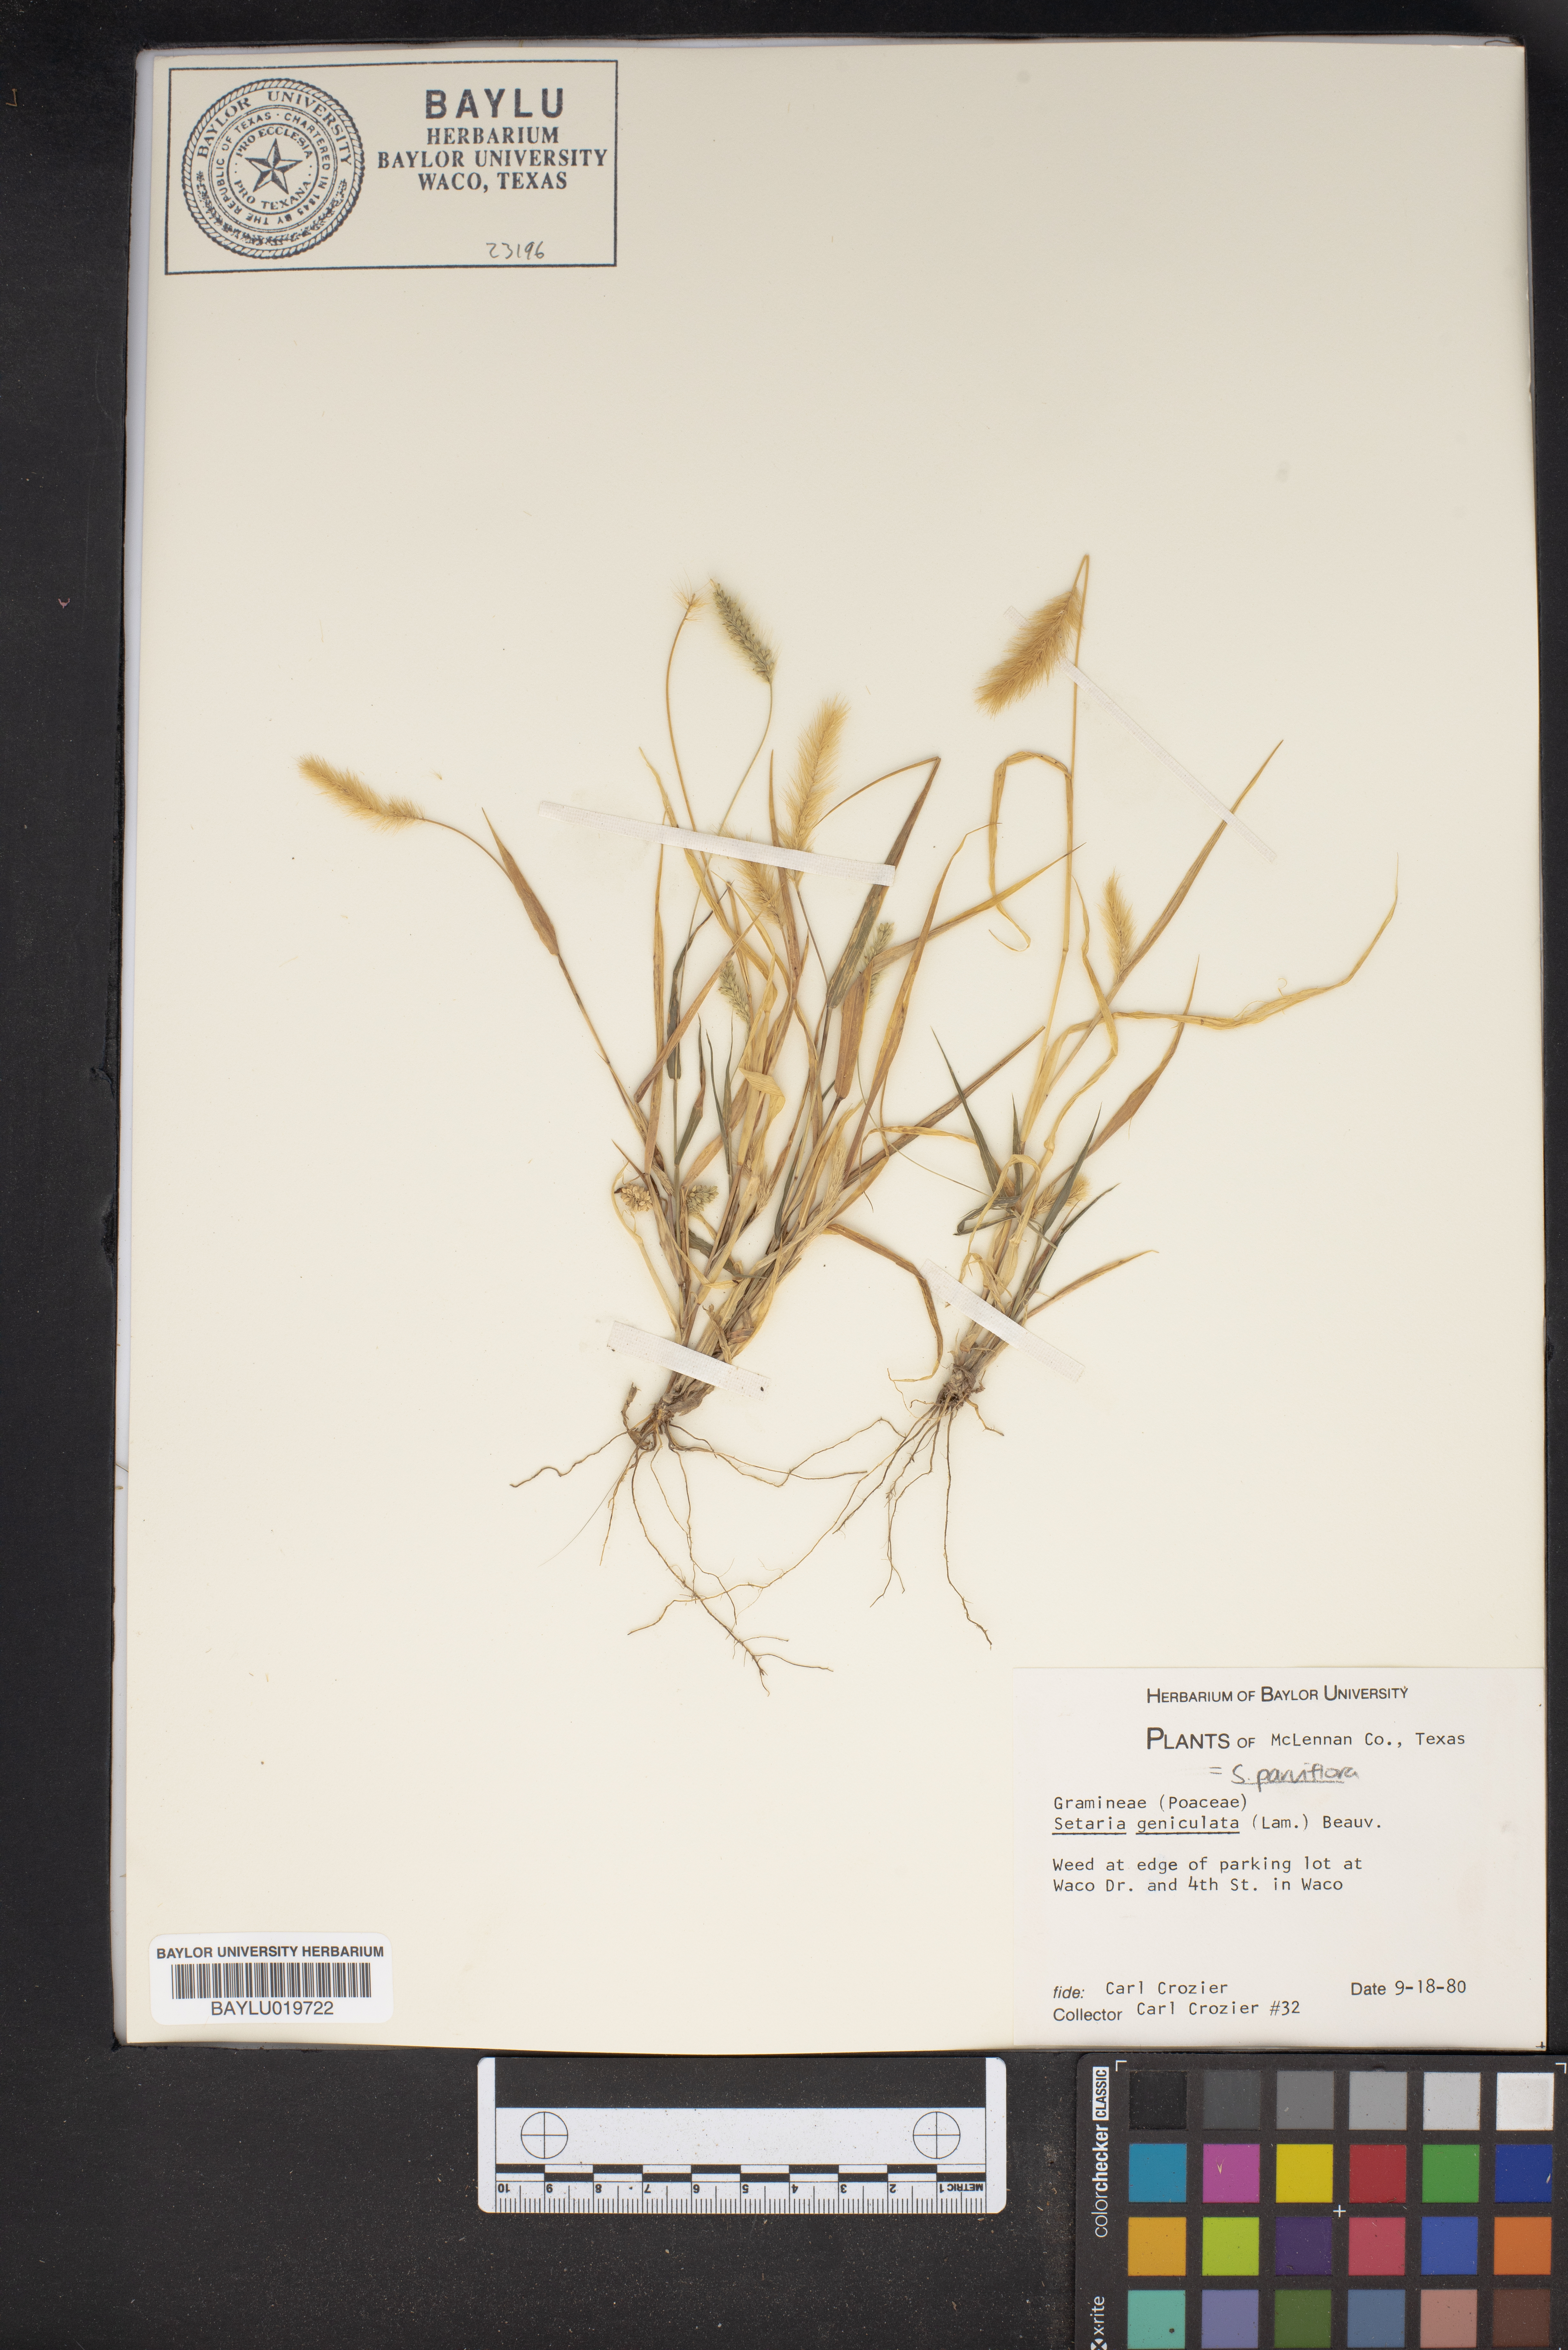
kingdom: Plantae
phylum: Tracheophyta
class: Liliopsida
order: Poales
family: Poaceae
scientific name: Poaceae
